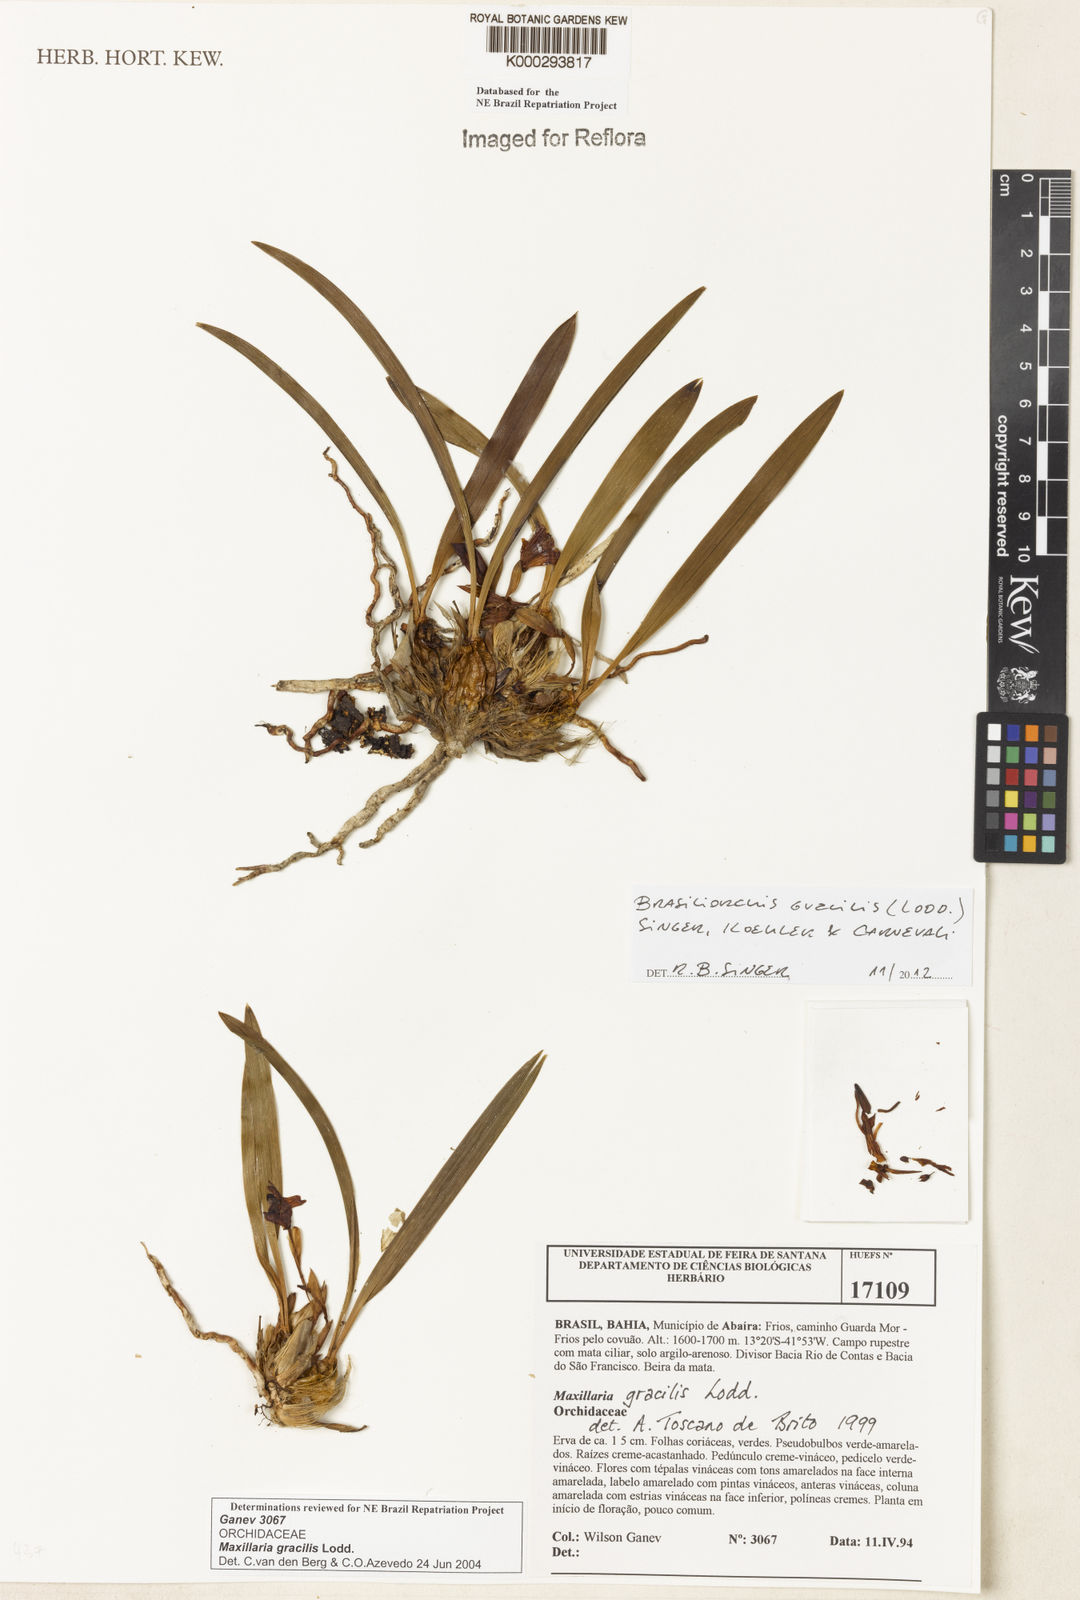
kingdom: Plantae
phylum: Tracheophyta
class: Liliopsida
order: Asparagales
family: Orchidaceae
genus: Maxillaria
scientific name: Maxillaria
